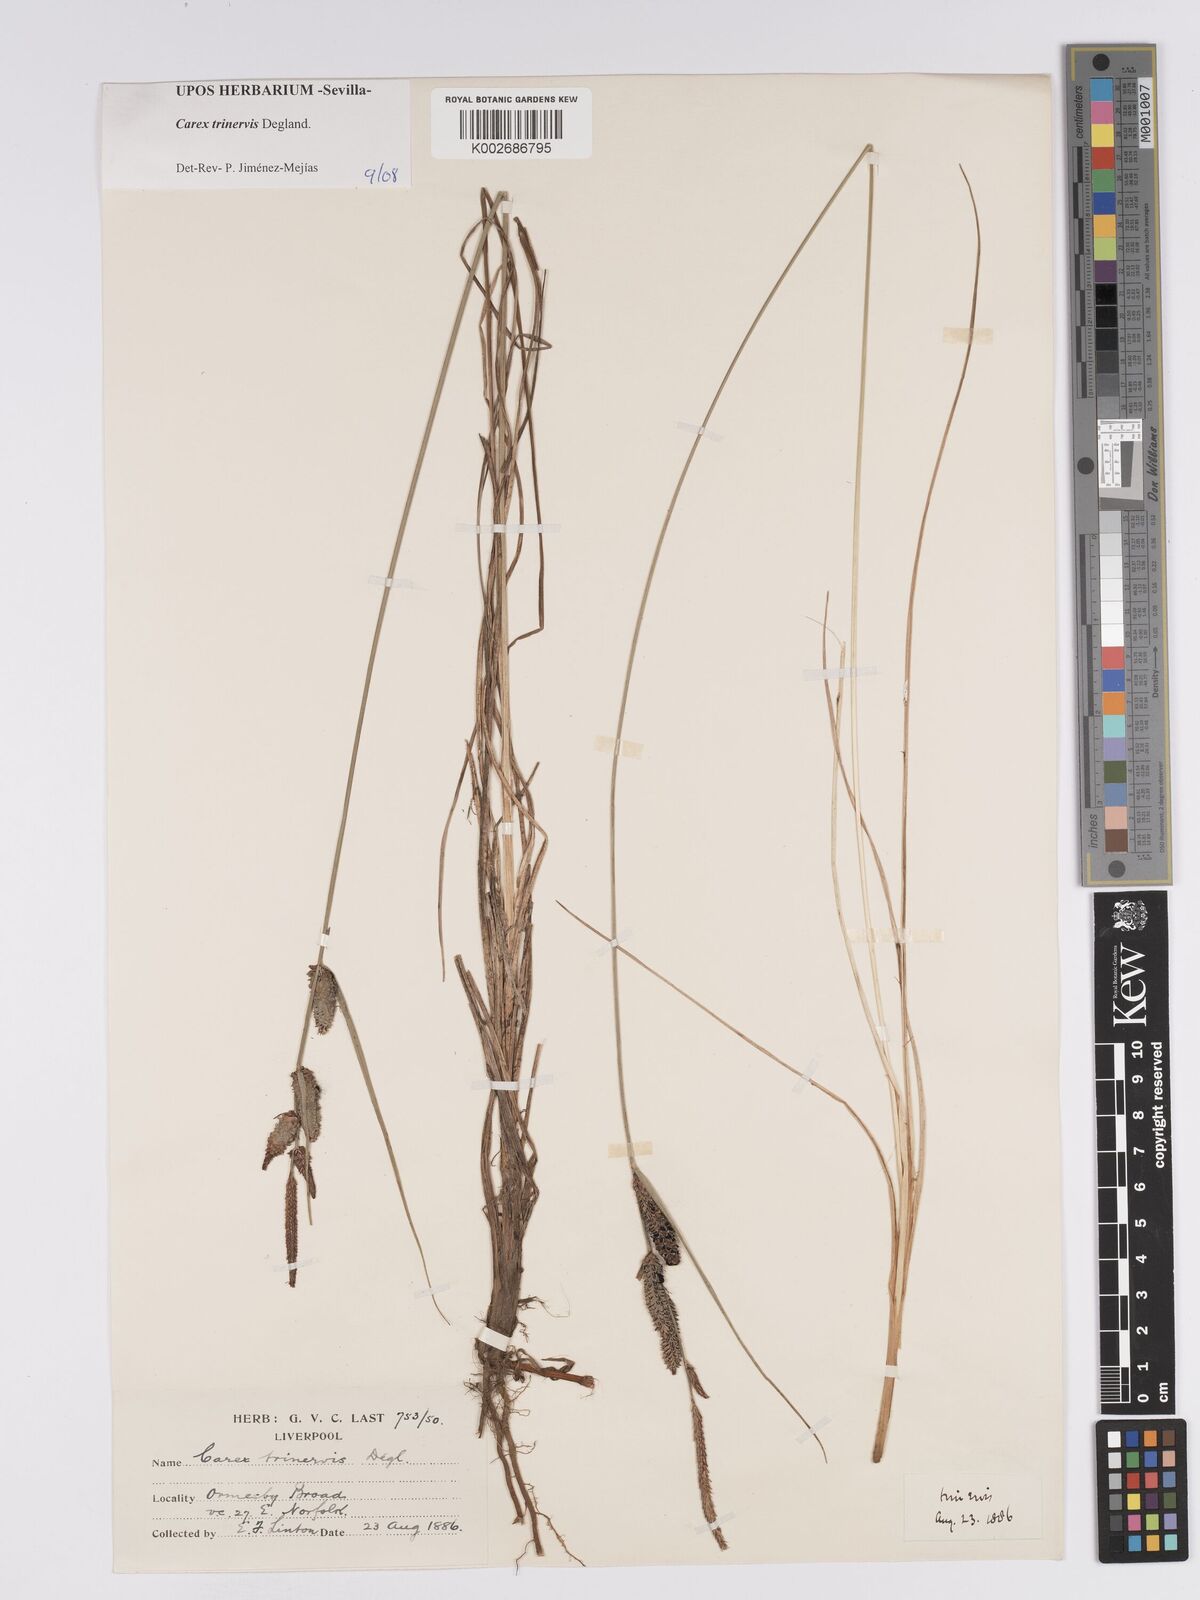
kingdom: Plantae
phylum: Tracheophyta
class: Liliopsida
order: Poales
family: Cyperaceae
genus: Carex
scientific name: Carex trinervis
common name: Three-nerved sedge
